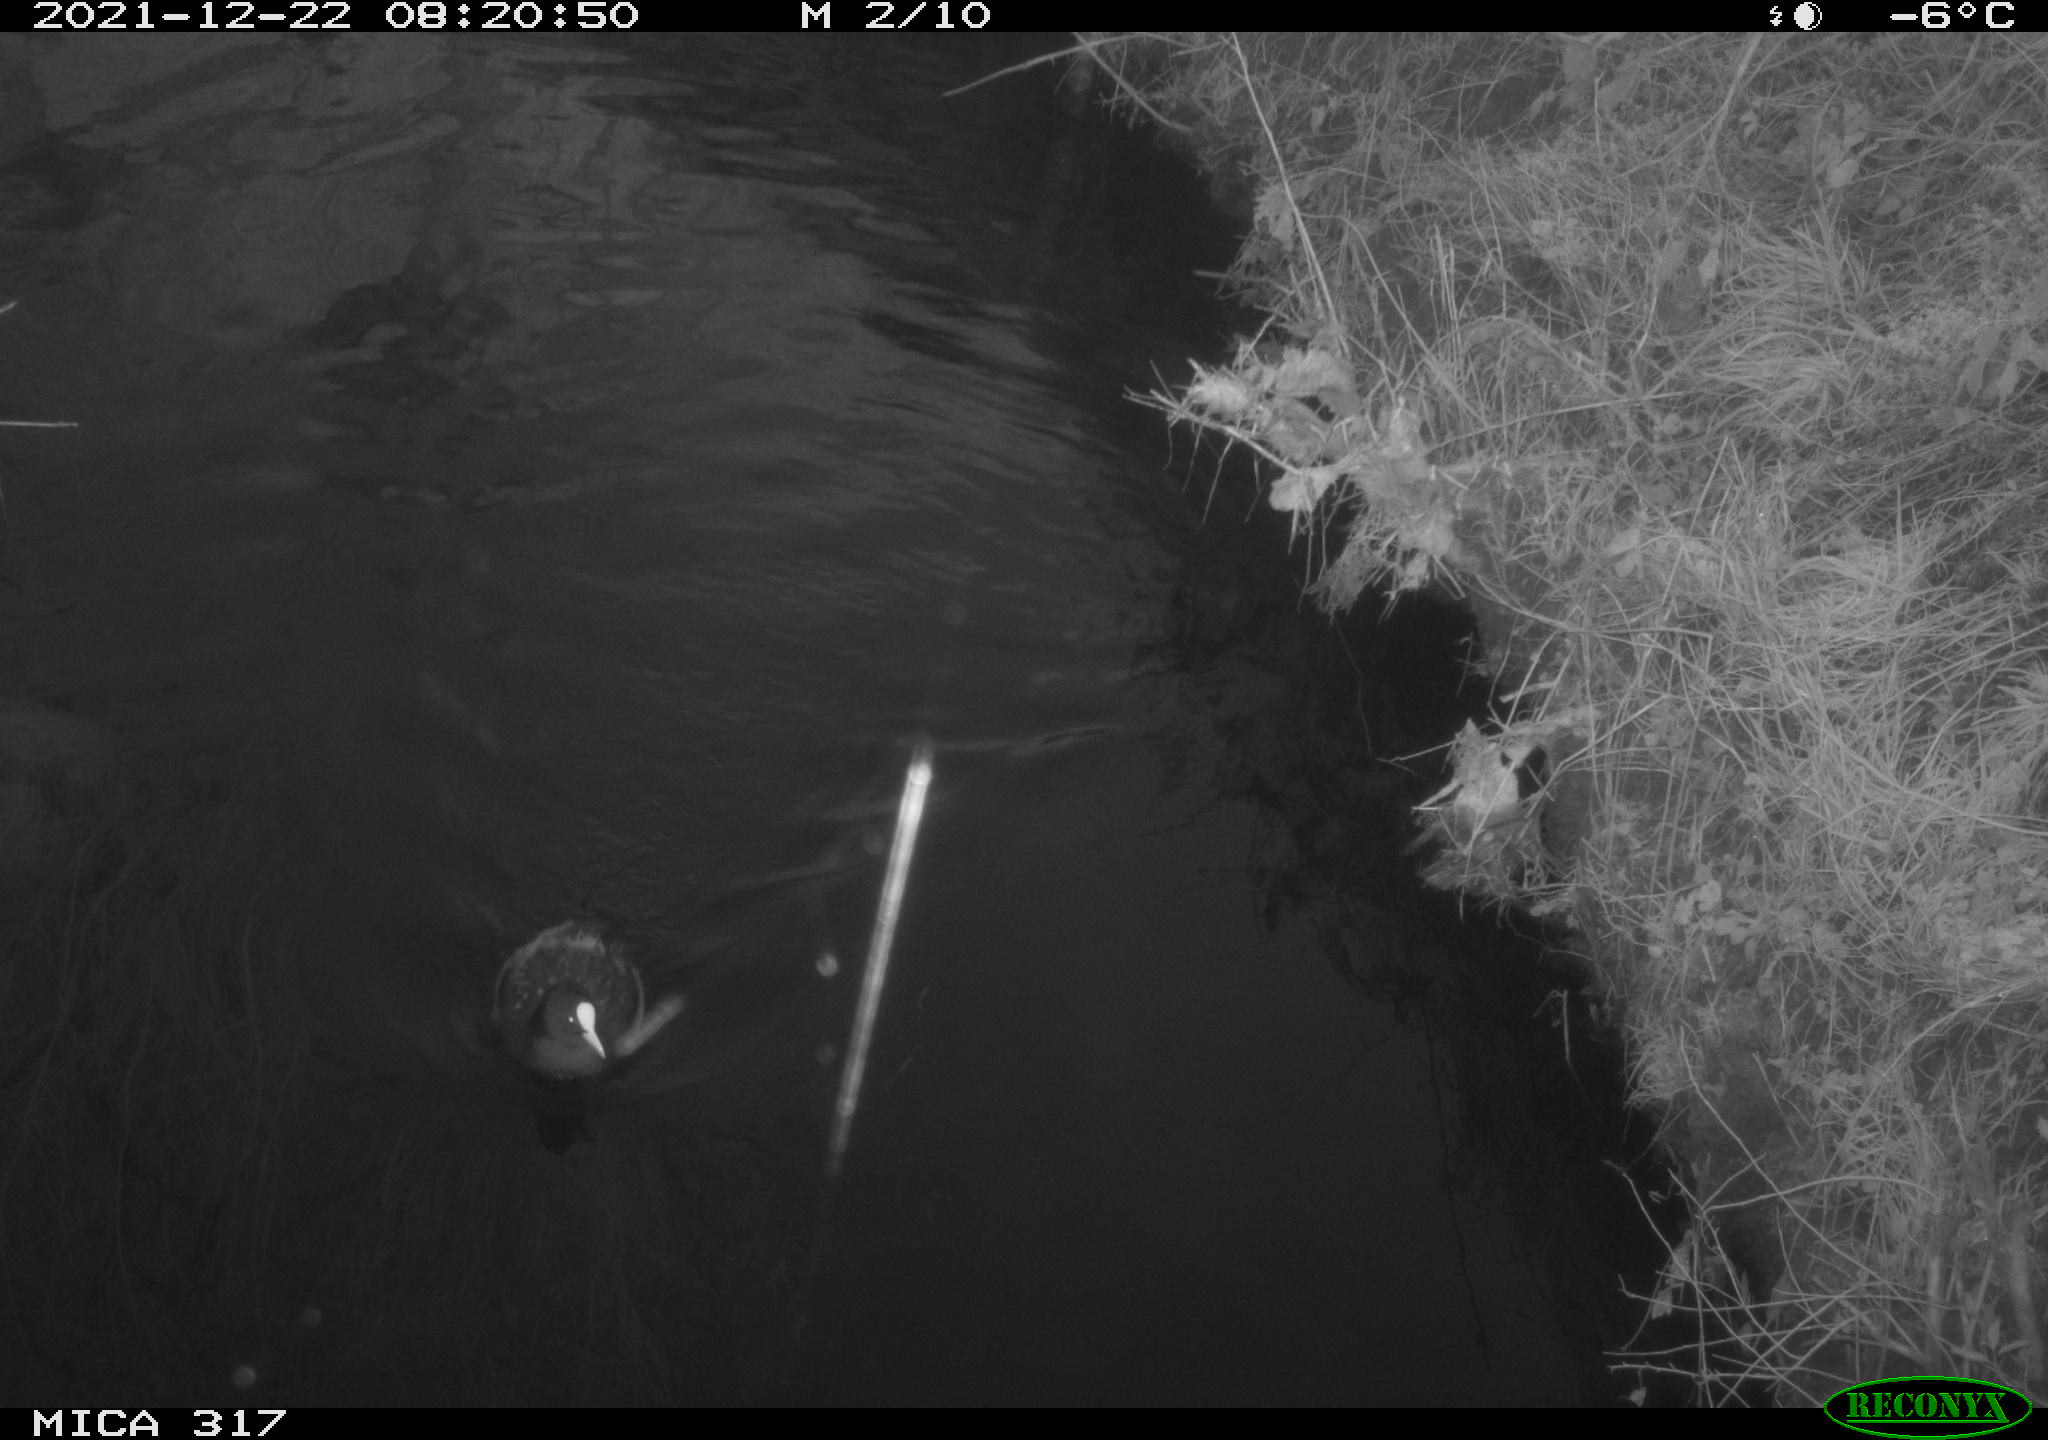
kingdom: Animalia
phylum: Chordata
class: Aves
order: Gruiformes
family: Rallidae
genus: Fulica
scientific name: Fulica atra
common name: Eurasian coot
